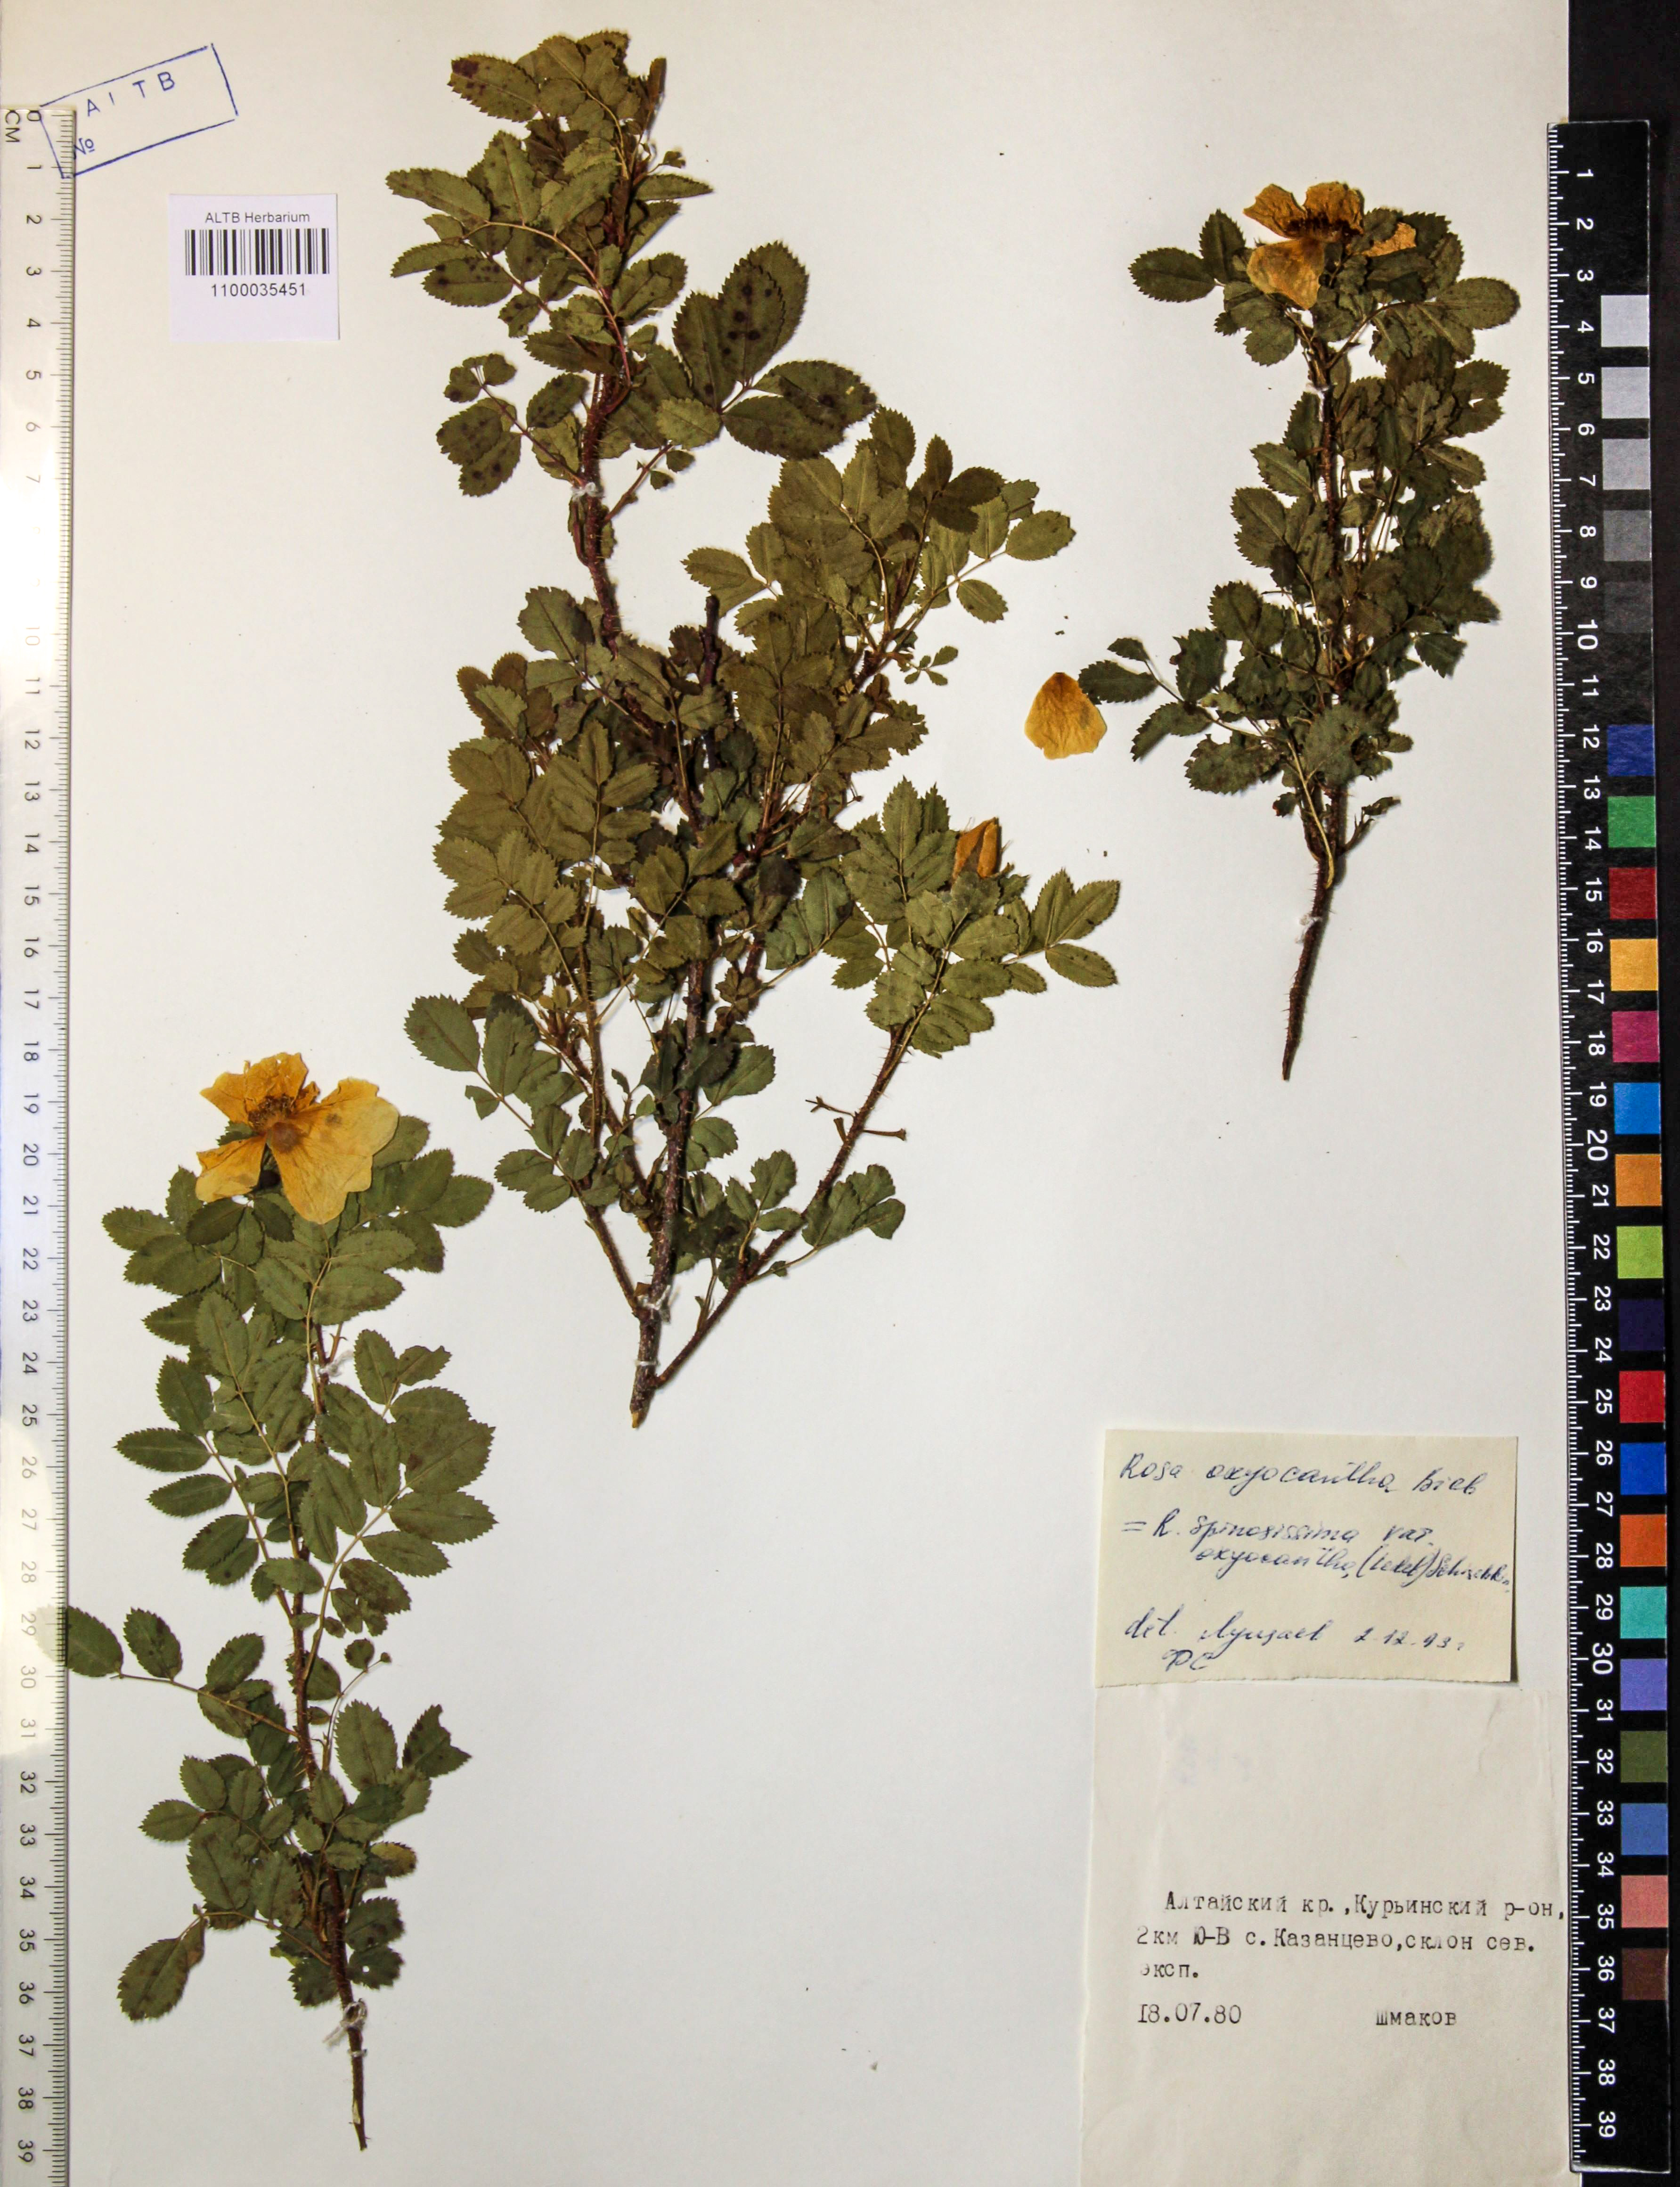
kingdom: Plantae
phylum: Tracheophyta
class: Magnoliopsida
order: Rosales
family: Rosaceae
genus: Rosa
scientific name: Rosa oxyacantha
